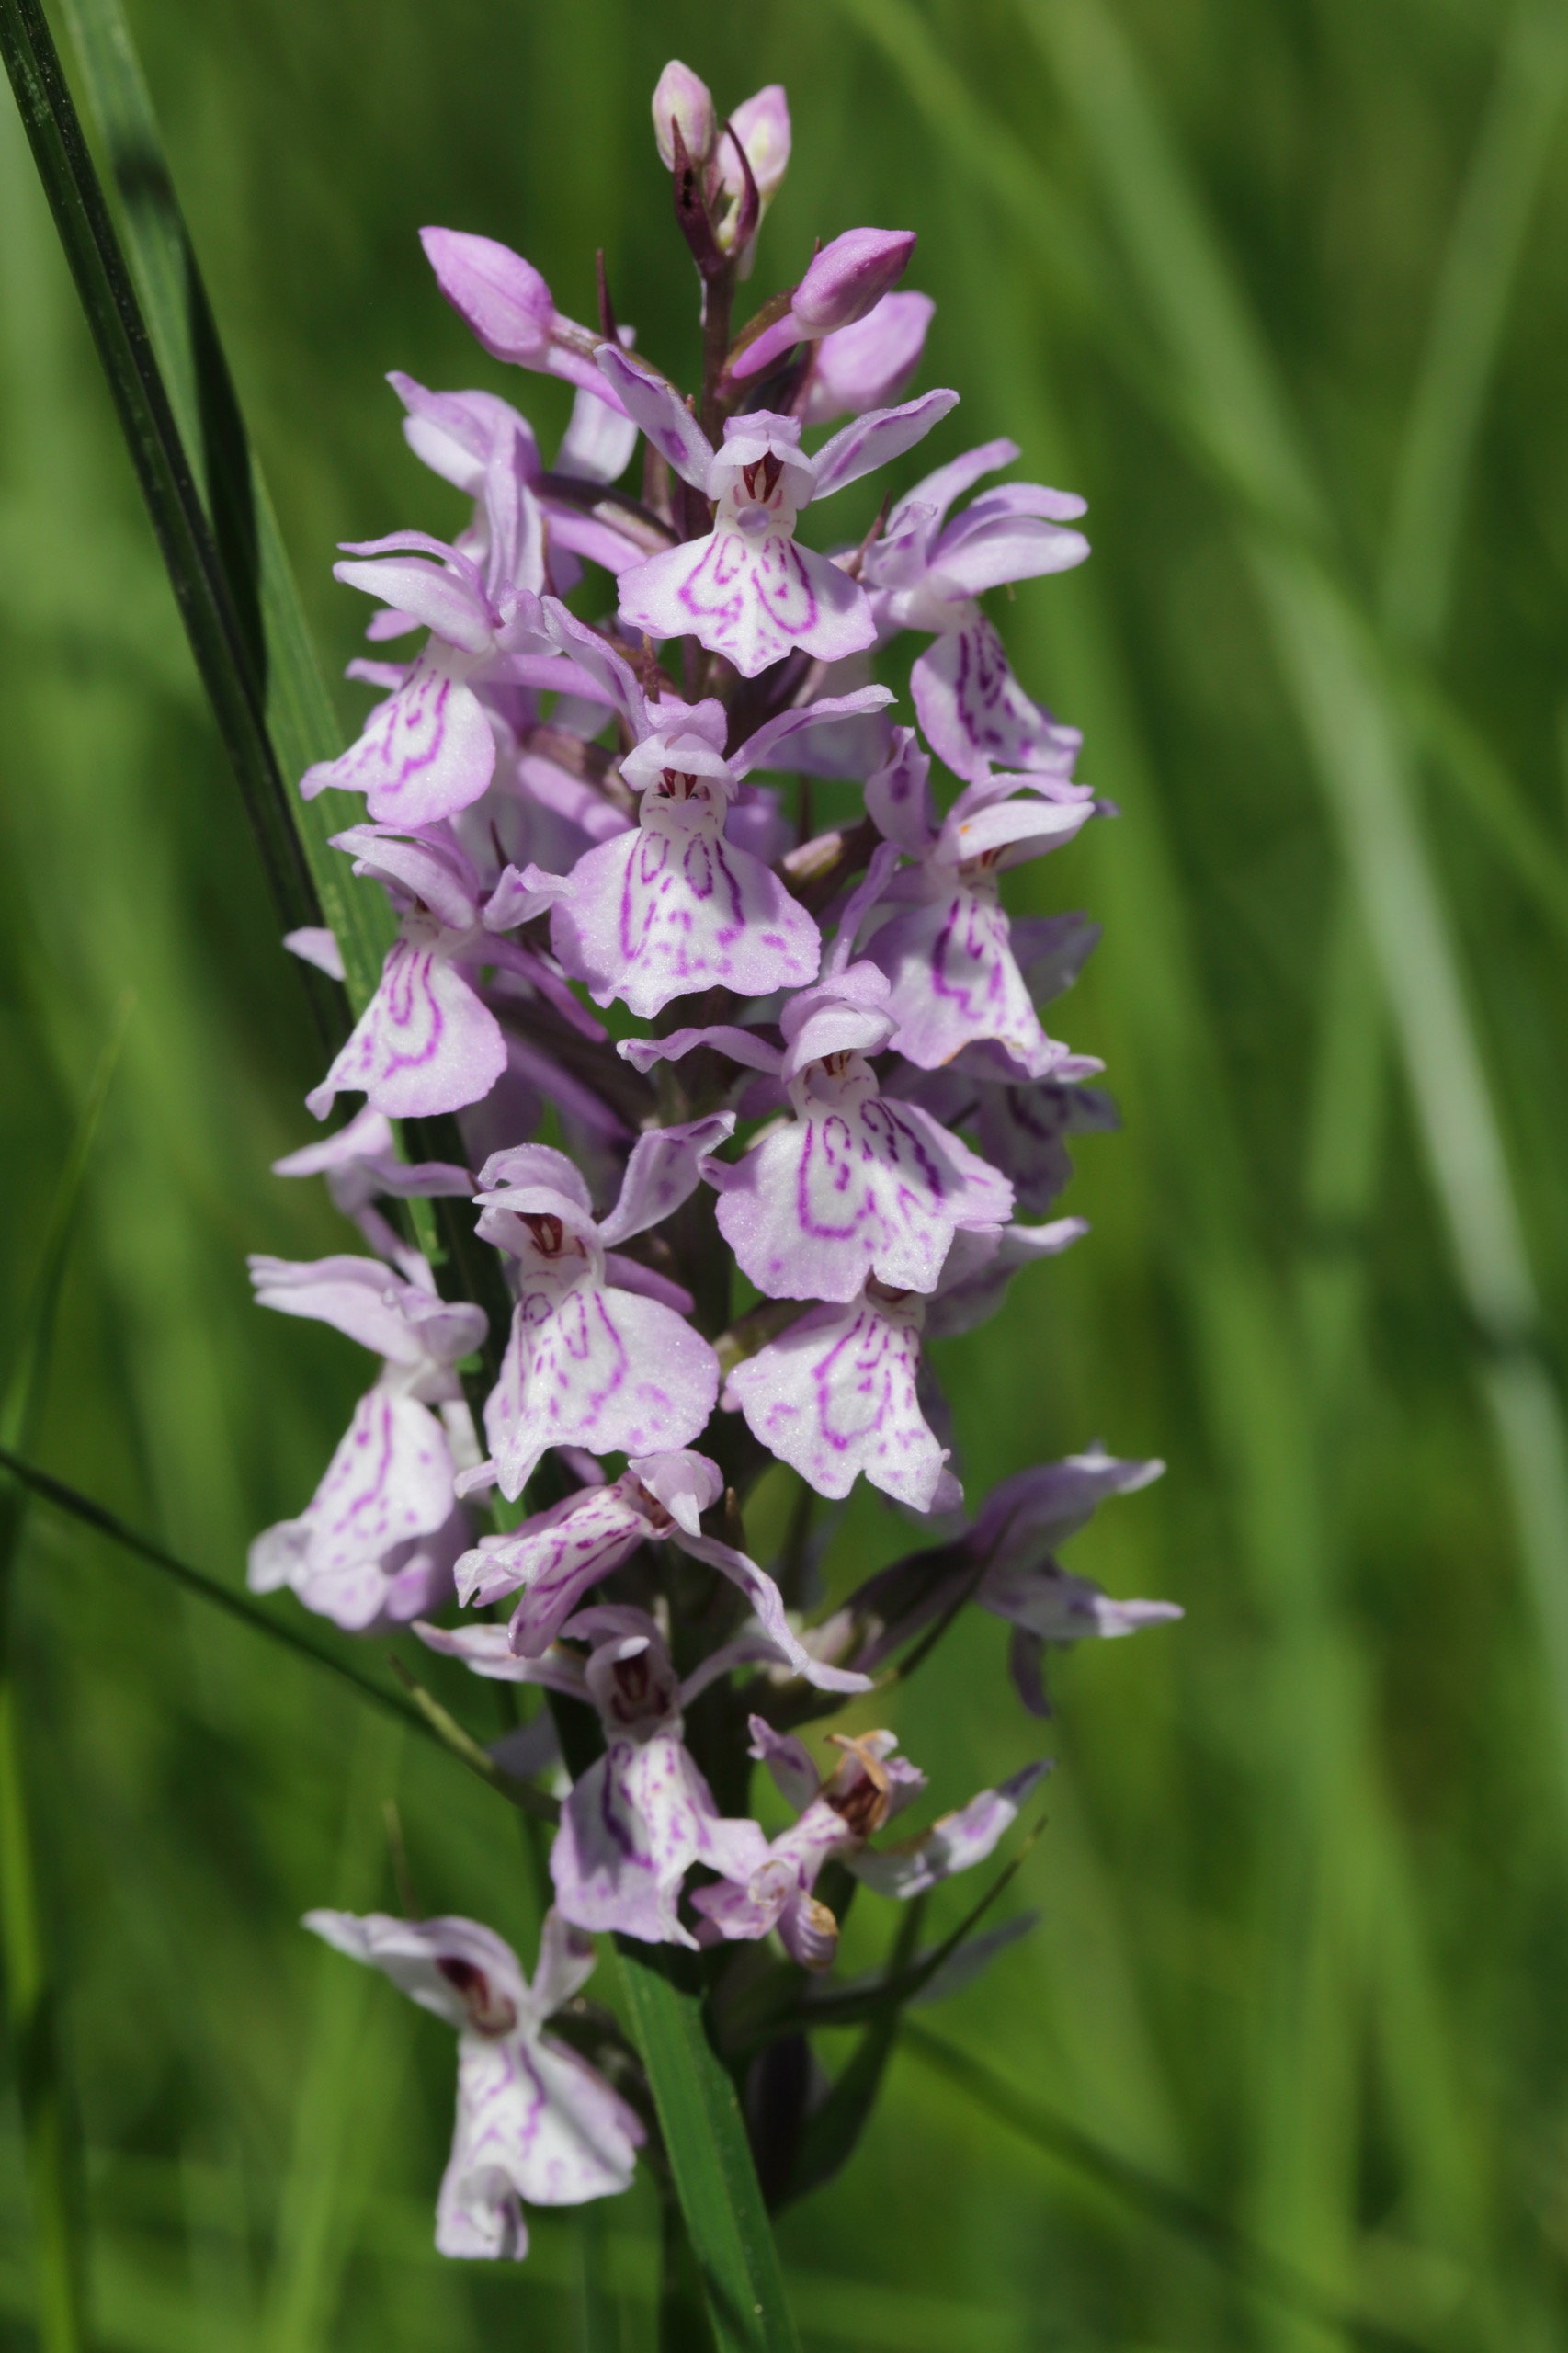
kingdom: Plantae
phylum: Tracheophyta
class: Liliopsida
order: Asparagales
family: Orchidaceae
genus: Dactylorhiza
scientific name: Dactylorhiza maculata
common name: Plettet gøgeurt
